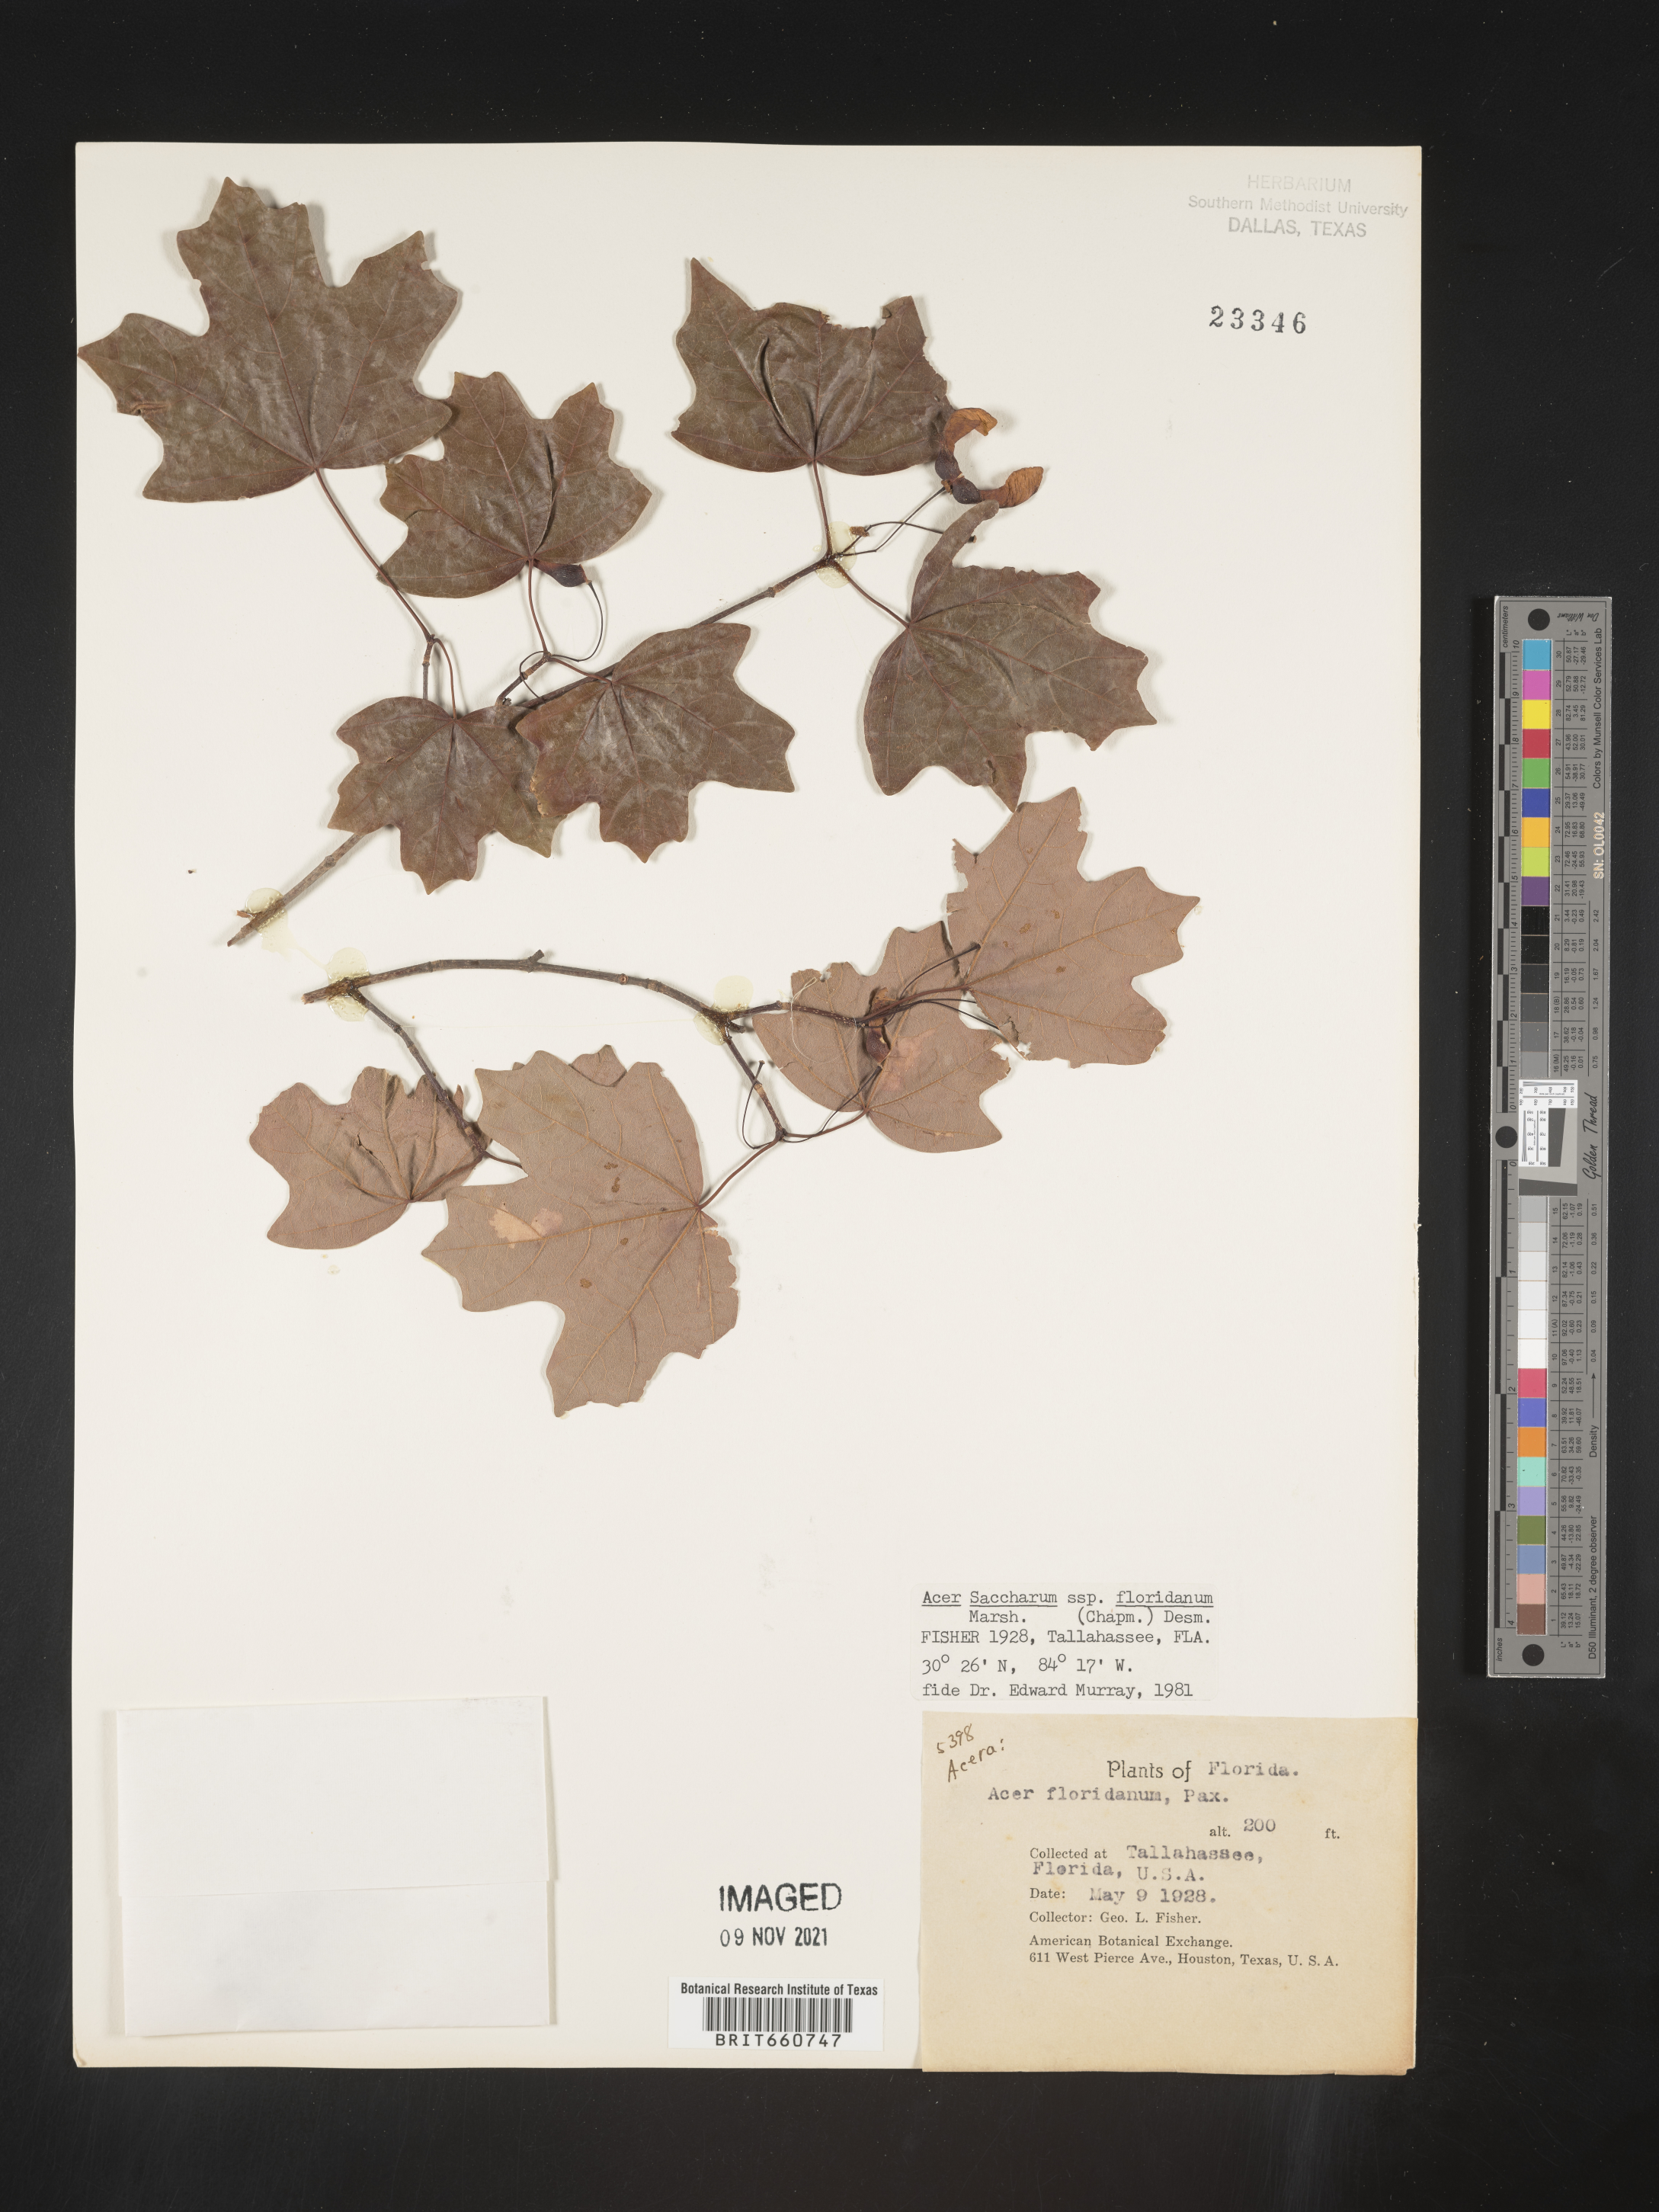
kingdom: Plantae
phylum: Tracheophyta
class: Magnoliopsida
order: Sapindales
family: Sapindaceae
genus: Acer
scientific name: Acer barbatum
